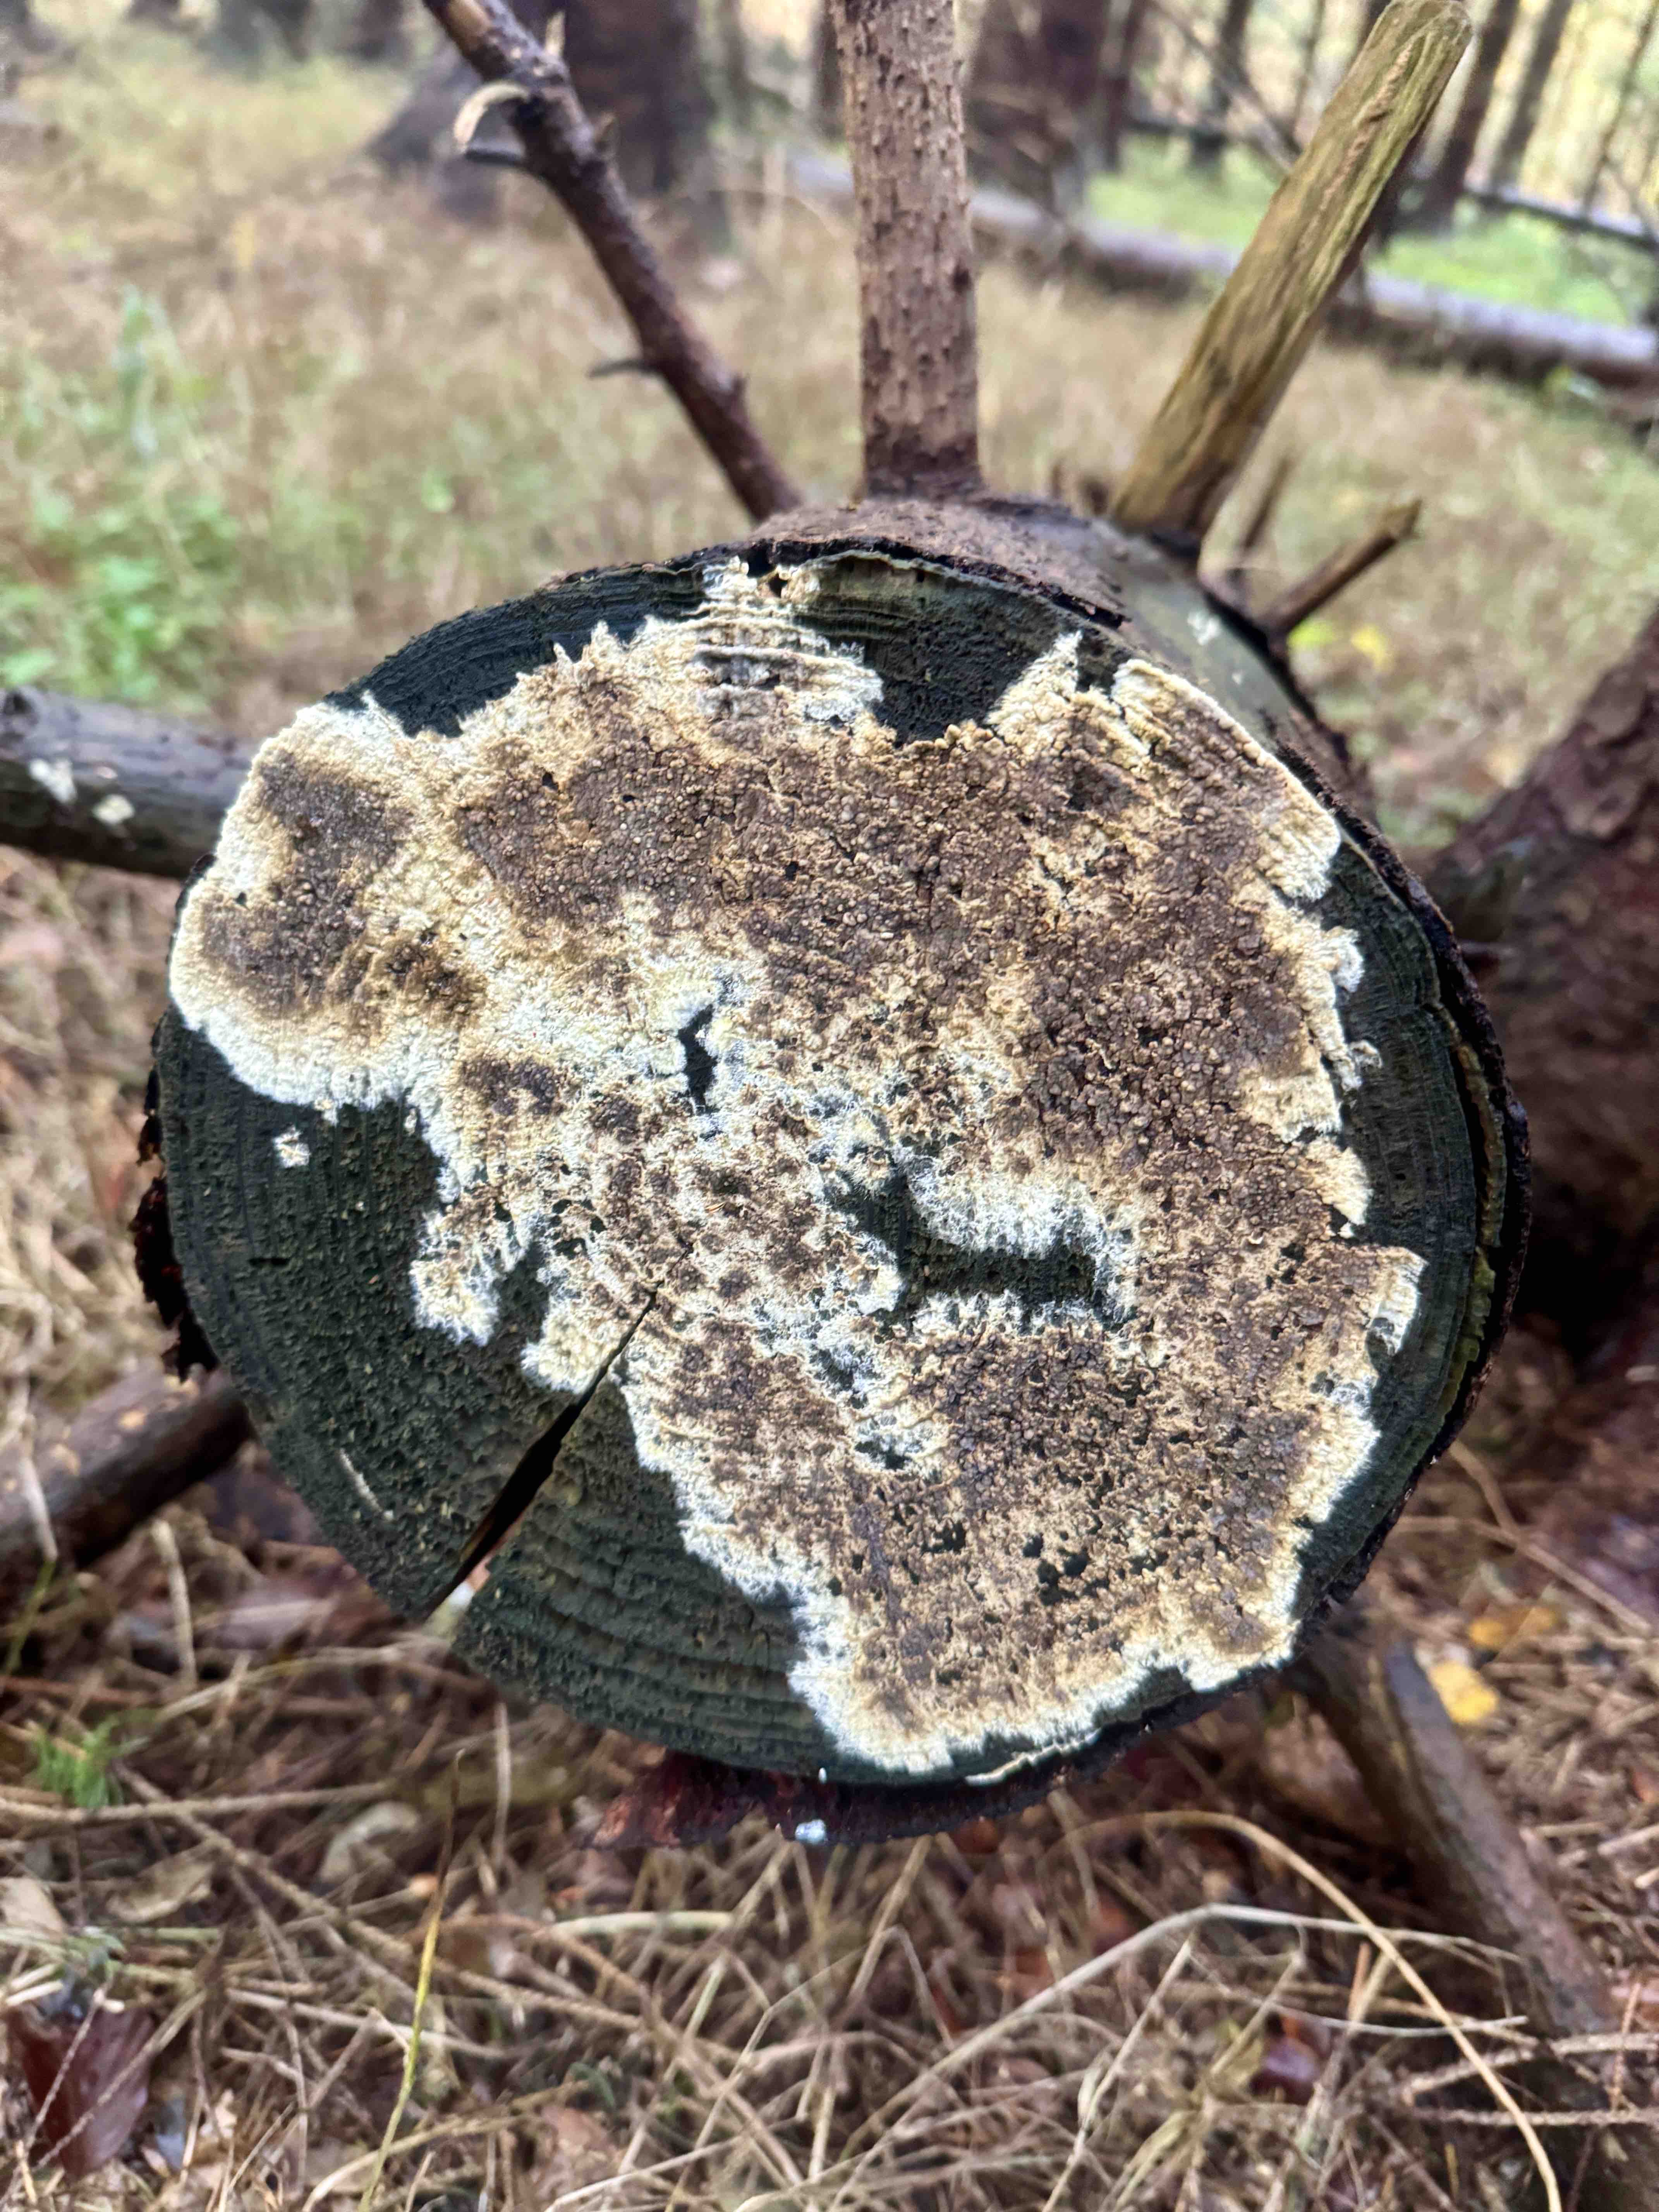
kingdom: Fungi
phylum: Basidiomycota
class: Agaricomycetes
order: Boletales
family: Coniophoraceae
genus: Coniophora
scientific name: Coniophora puteana
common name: gul tømmersvamp
